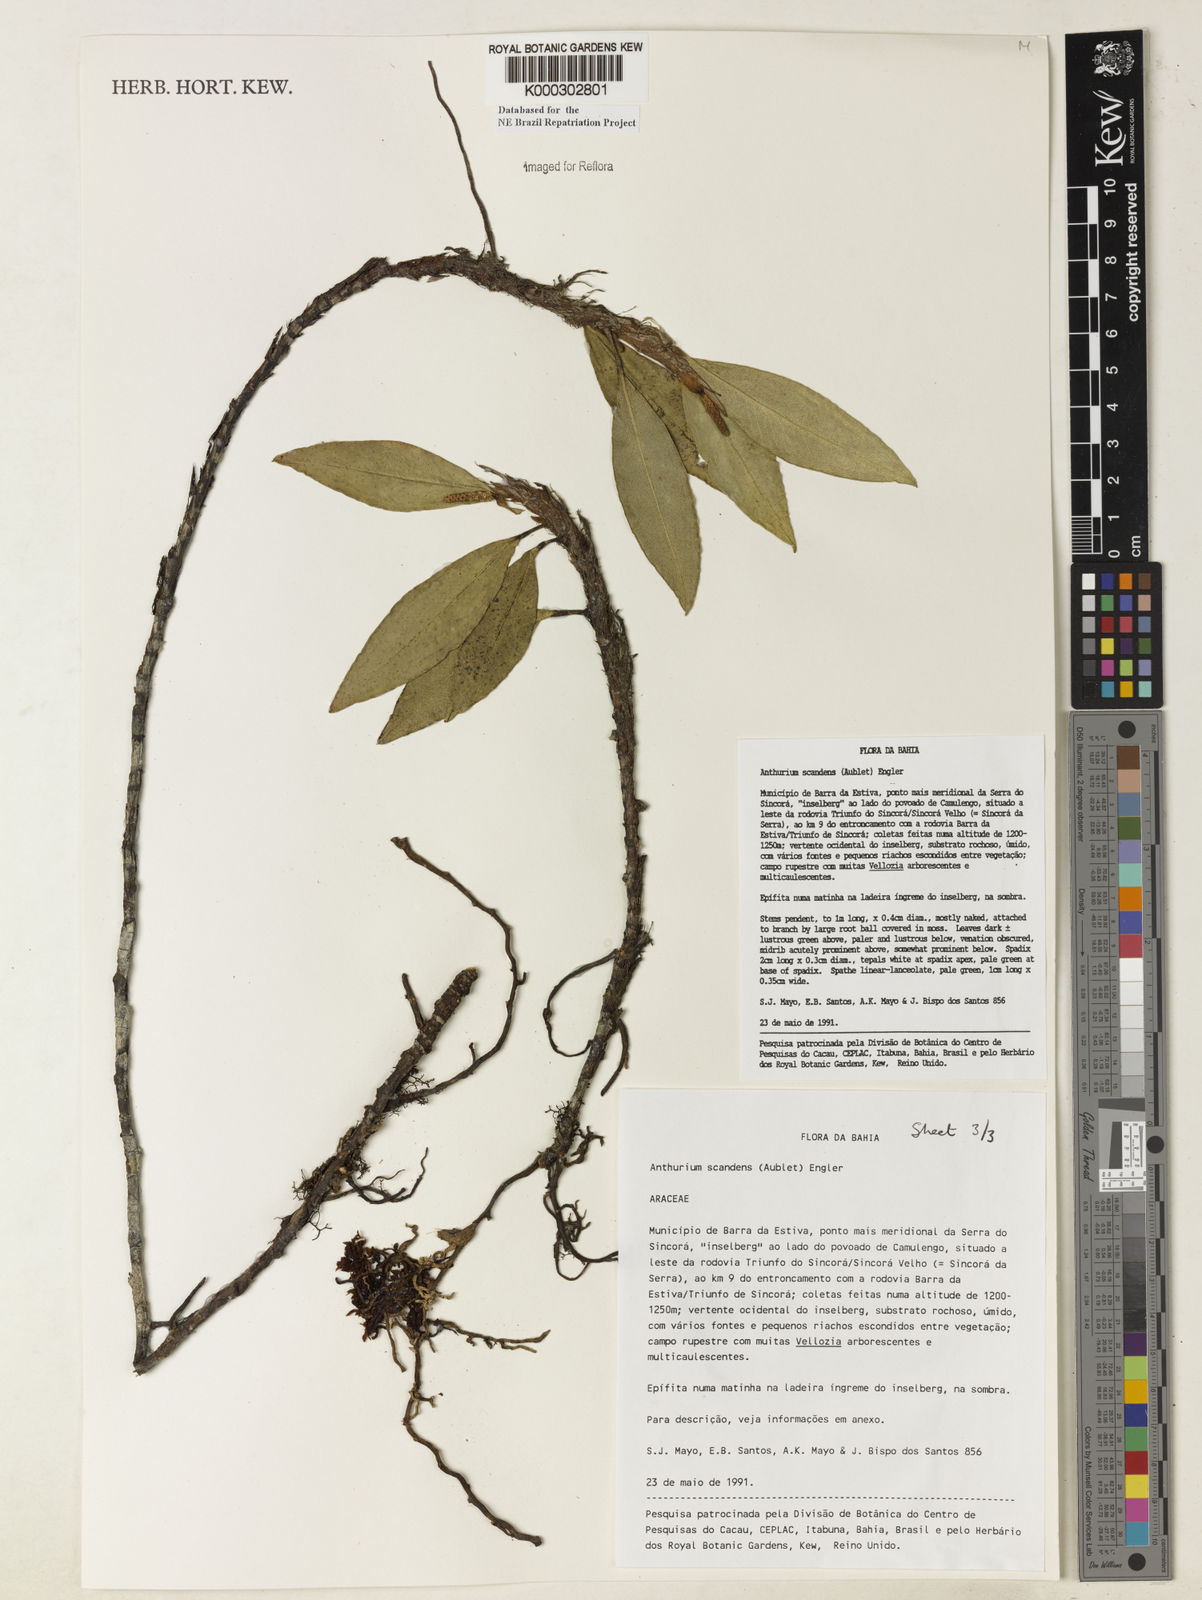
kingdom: Plantae
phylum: Tracheophyta
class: Liliopsida
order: Alismatales
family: Araceae
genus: Anthurium
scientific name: Anthurium scandens
